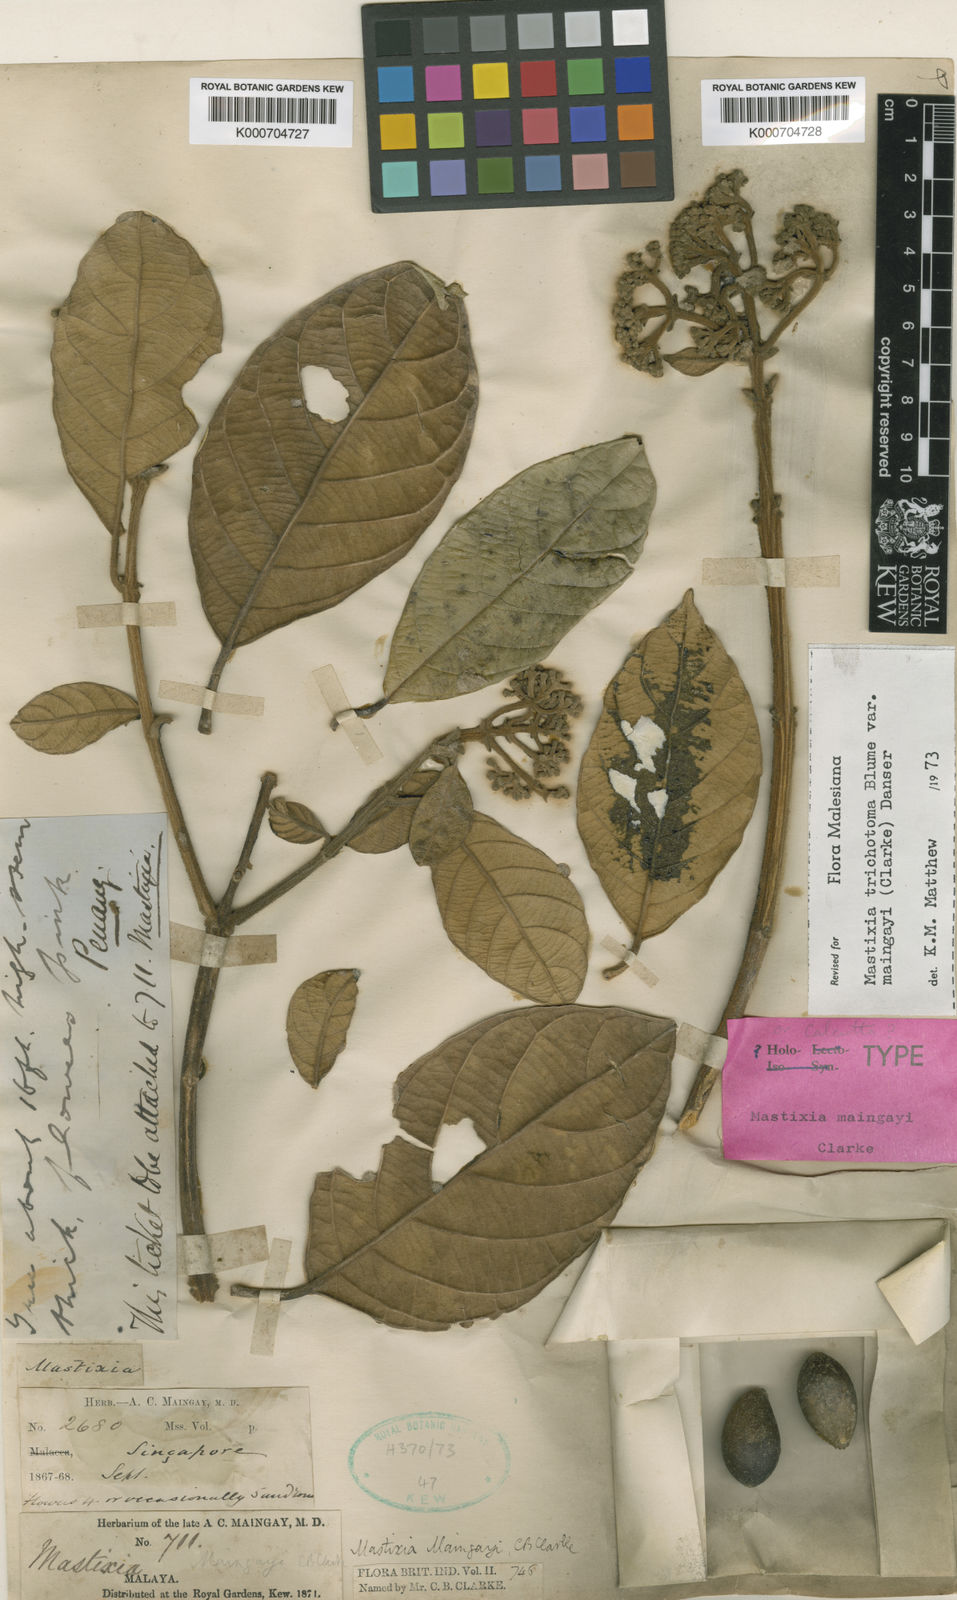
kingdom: Plantae
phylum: Tracheophyta
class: Magnoliopsida
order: Cornales
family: Nyssaceae
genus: Mastixia
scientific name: Mastixia trichotoma
